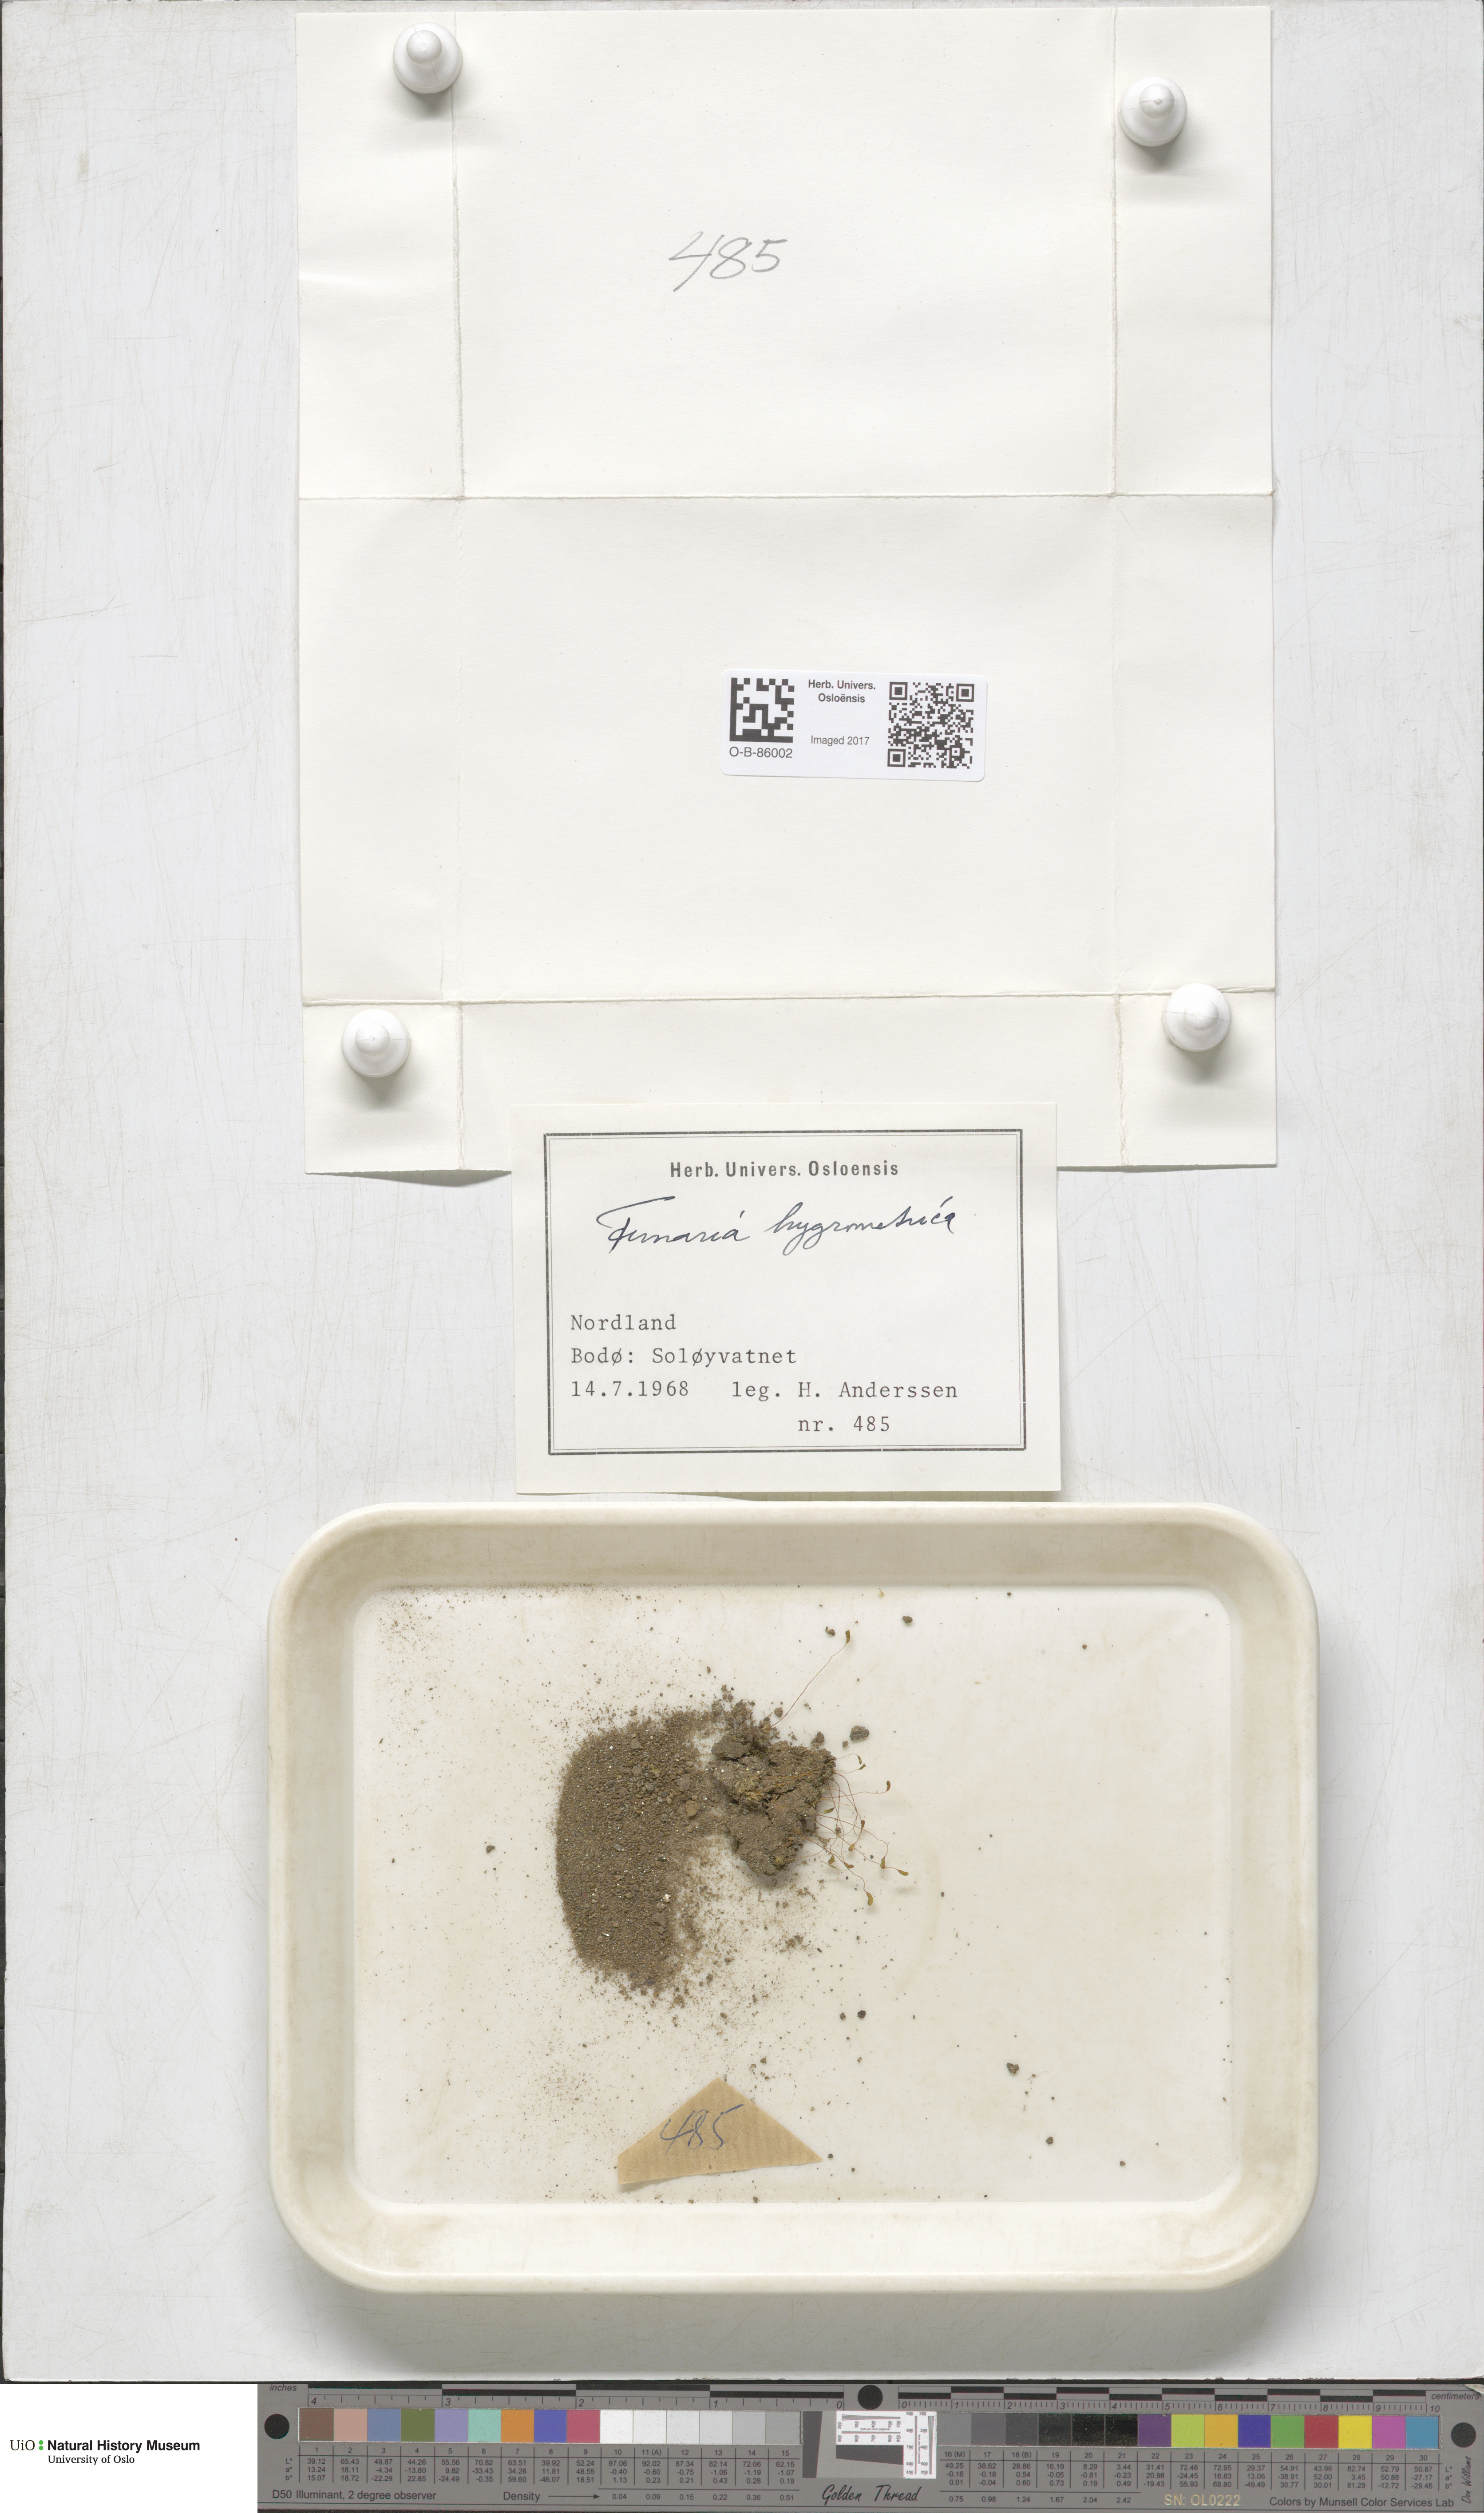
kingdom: Plantae
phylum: Bryophyta
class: Bryopsida
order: Funariales
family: Funariaceae
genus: Funaria
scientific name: Funaria hygrometrica
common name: Common cord moss
